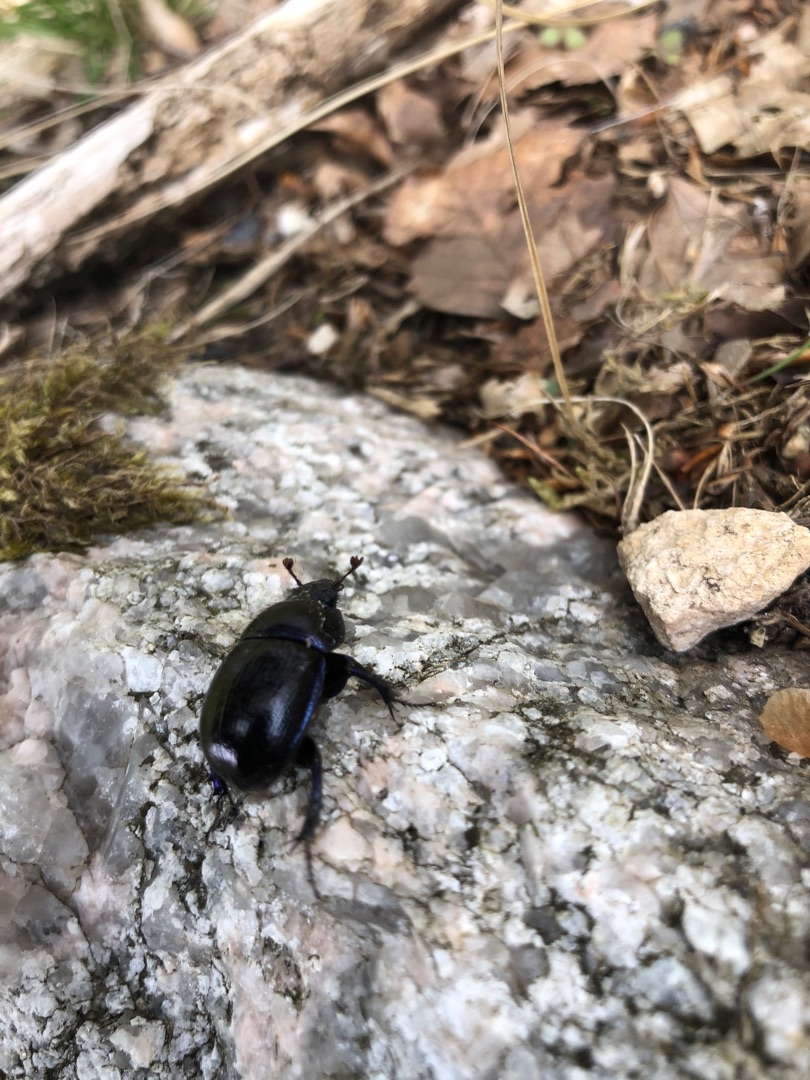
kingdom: Animalia
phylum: Arthropoda
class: Insecta
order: Coleoptera
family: Geotrupidae
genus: Anoplotrupes
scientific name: Anoplotrupes stercorosus
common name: Skovskarnbasse
